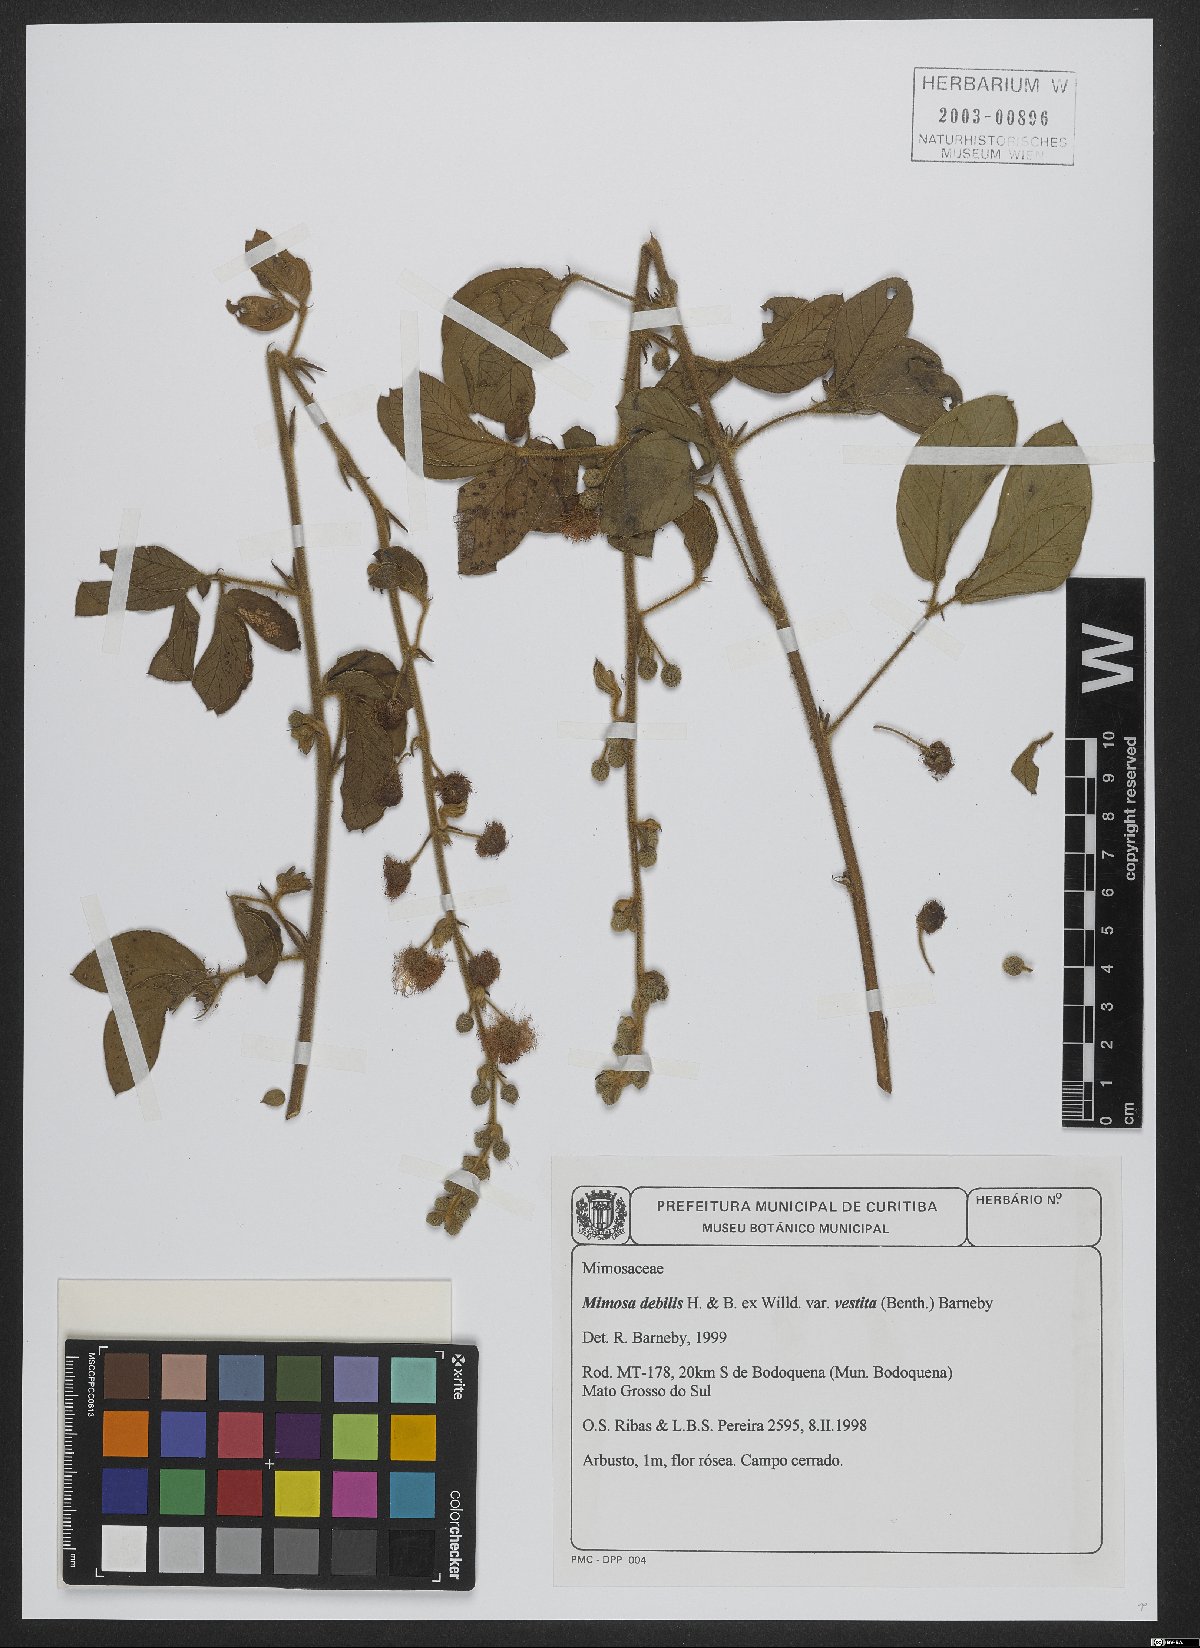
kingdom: Plantae
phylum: Tracheophyta
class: Magnoliopsida
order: Fabales
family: Fabaceae
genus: Mimosa
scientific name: Mimosa debilis
